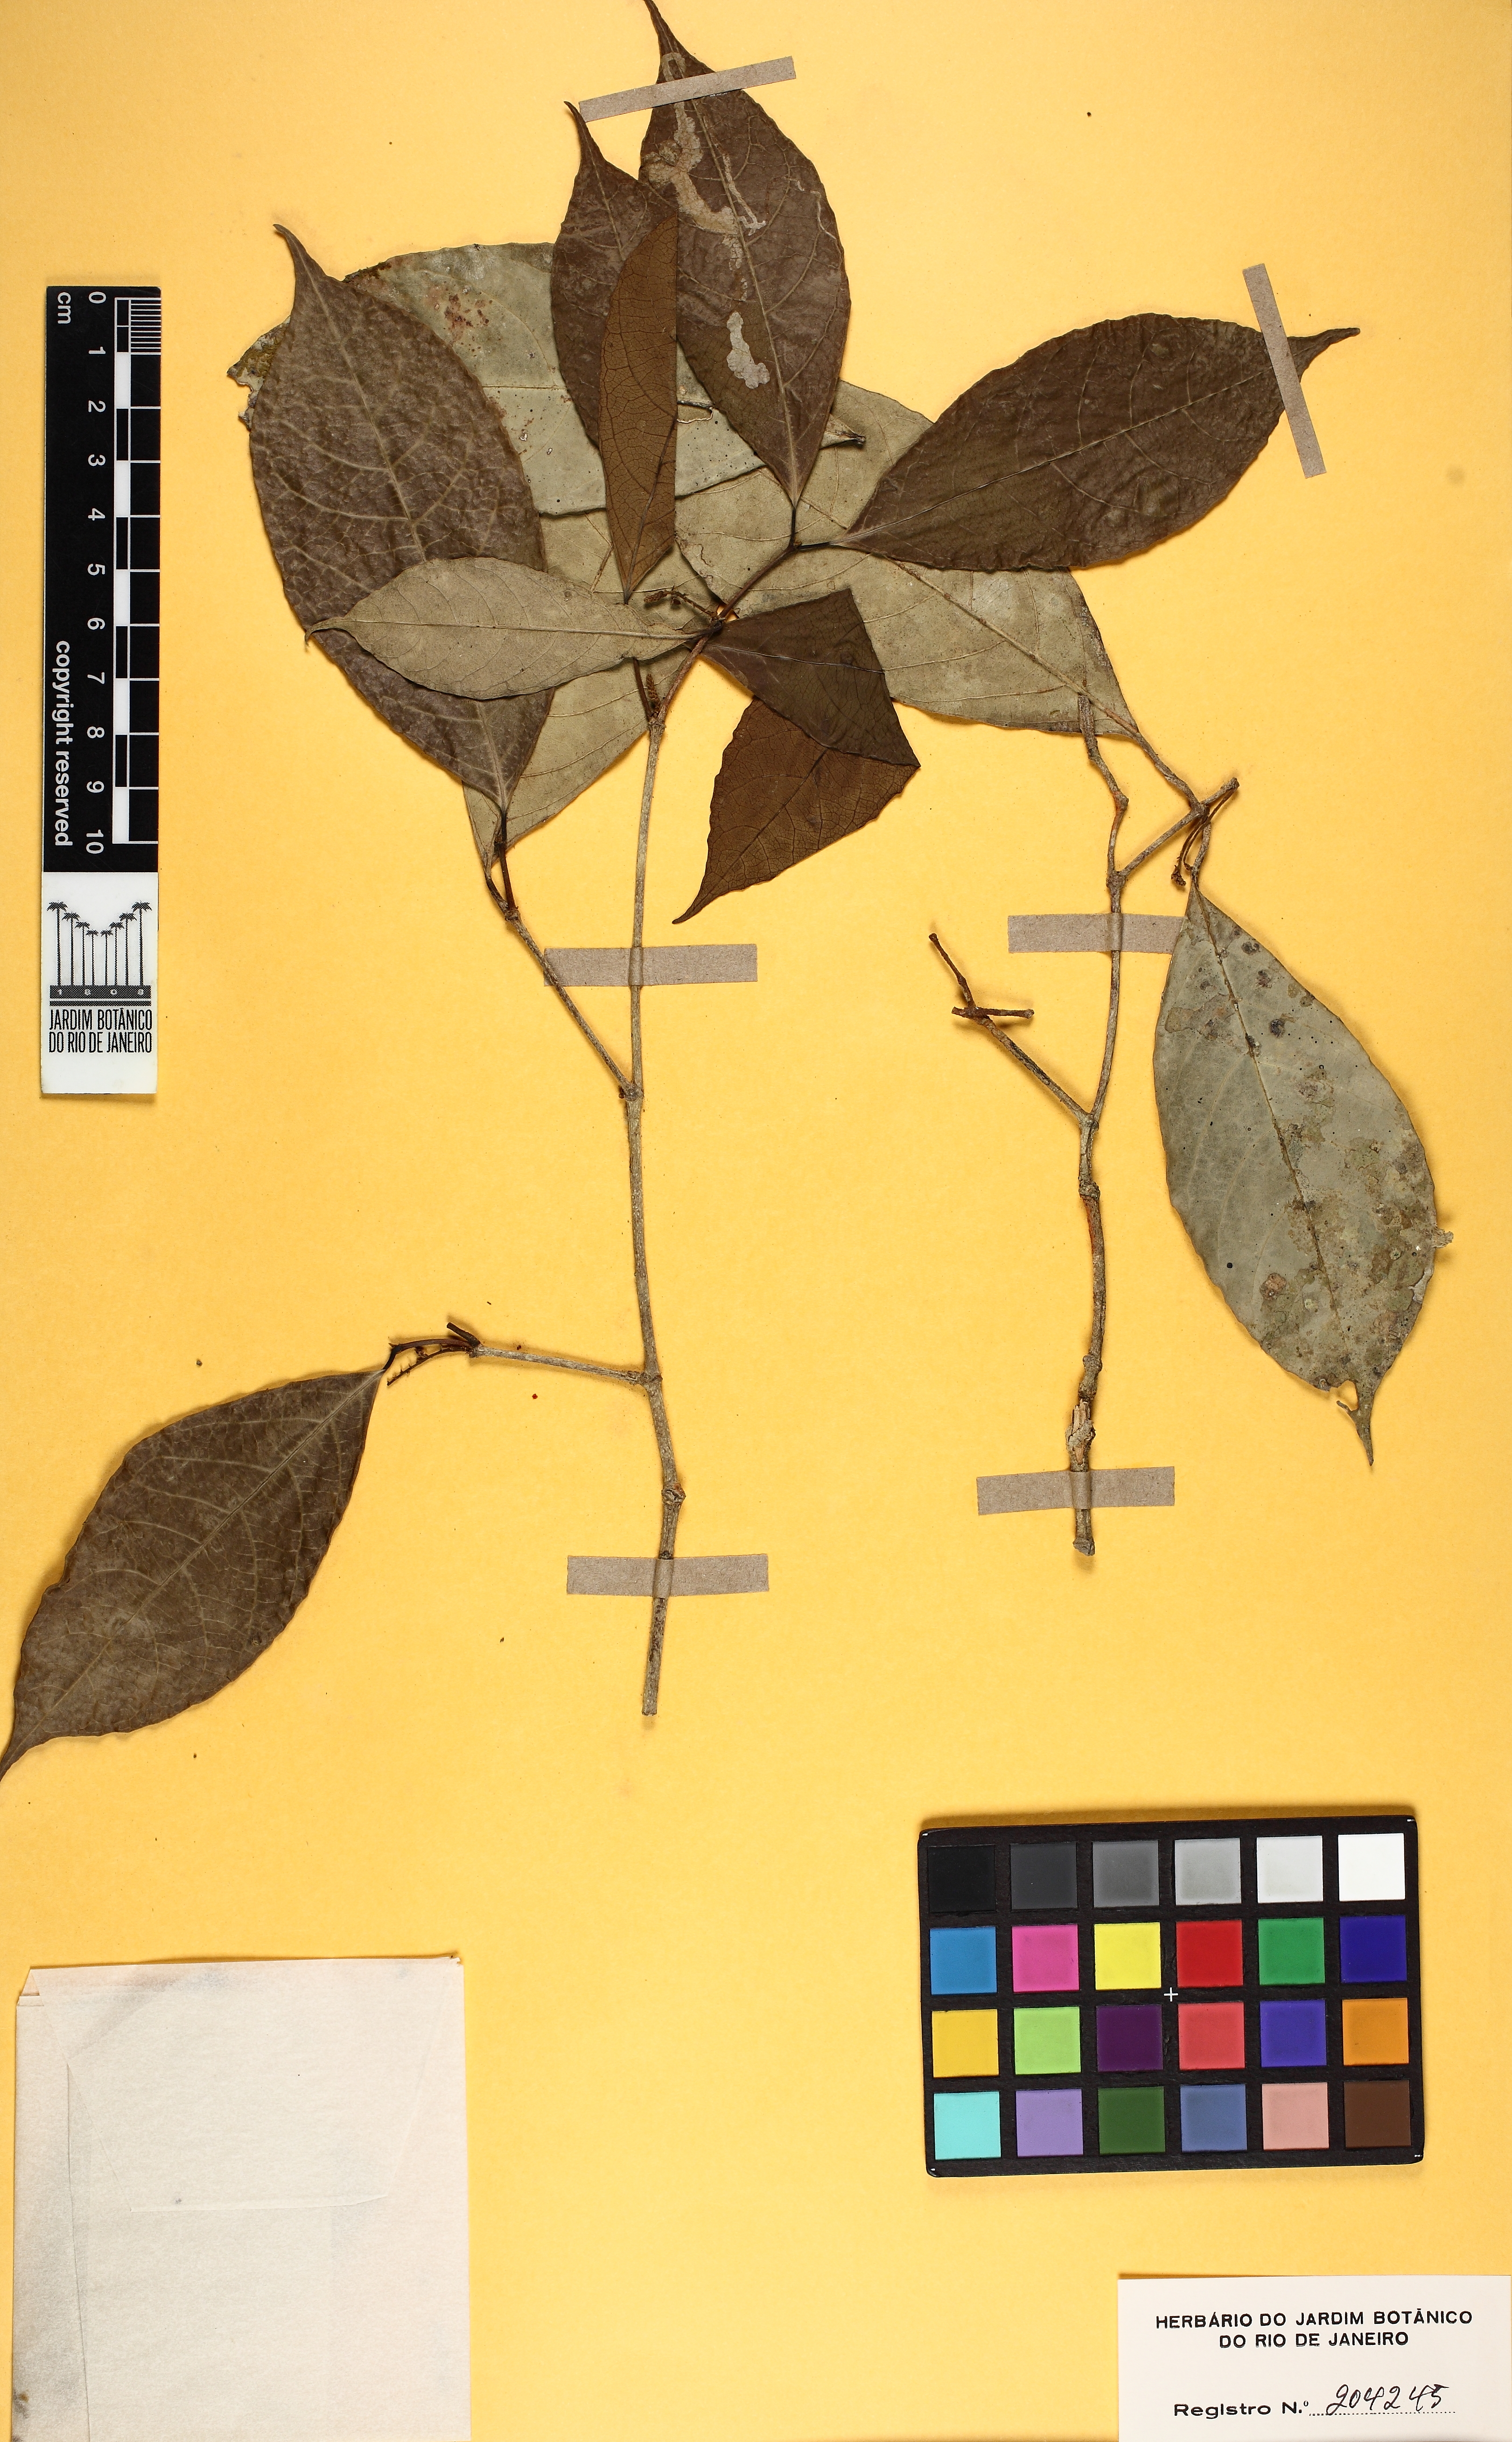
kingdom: Plantae
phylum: Tracheophyta
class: Magnoliopsida
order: Malpighiales
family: Violaceae
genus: Rinorea
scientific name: Rinorea
